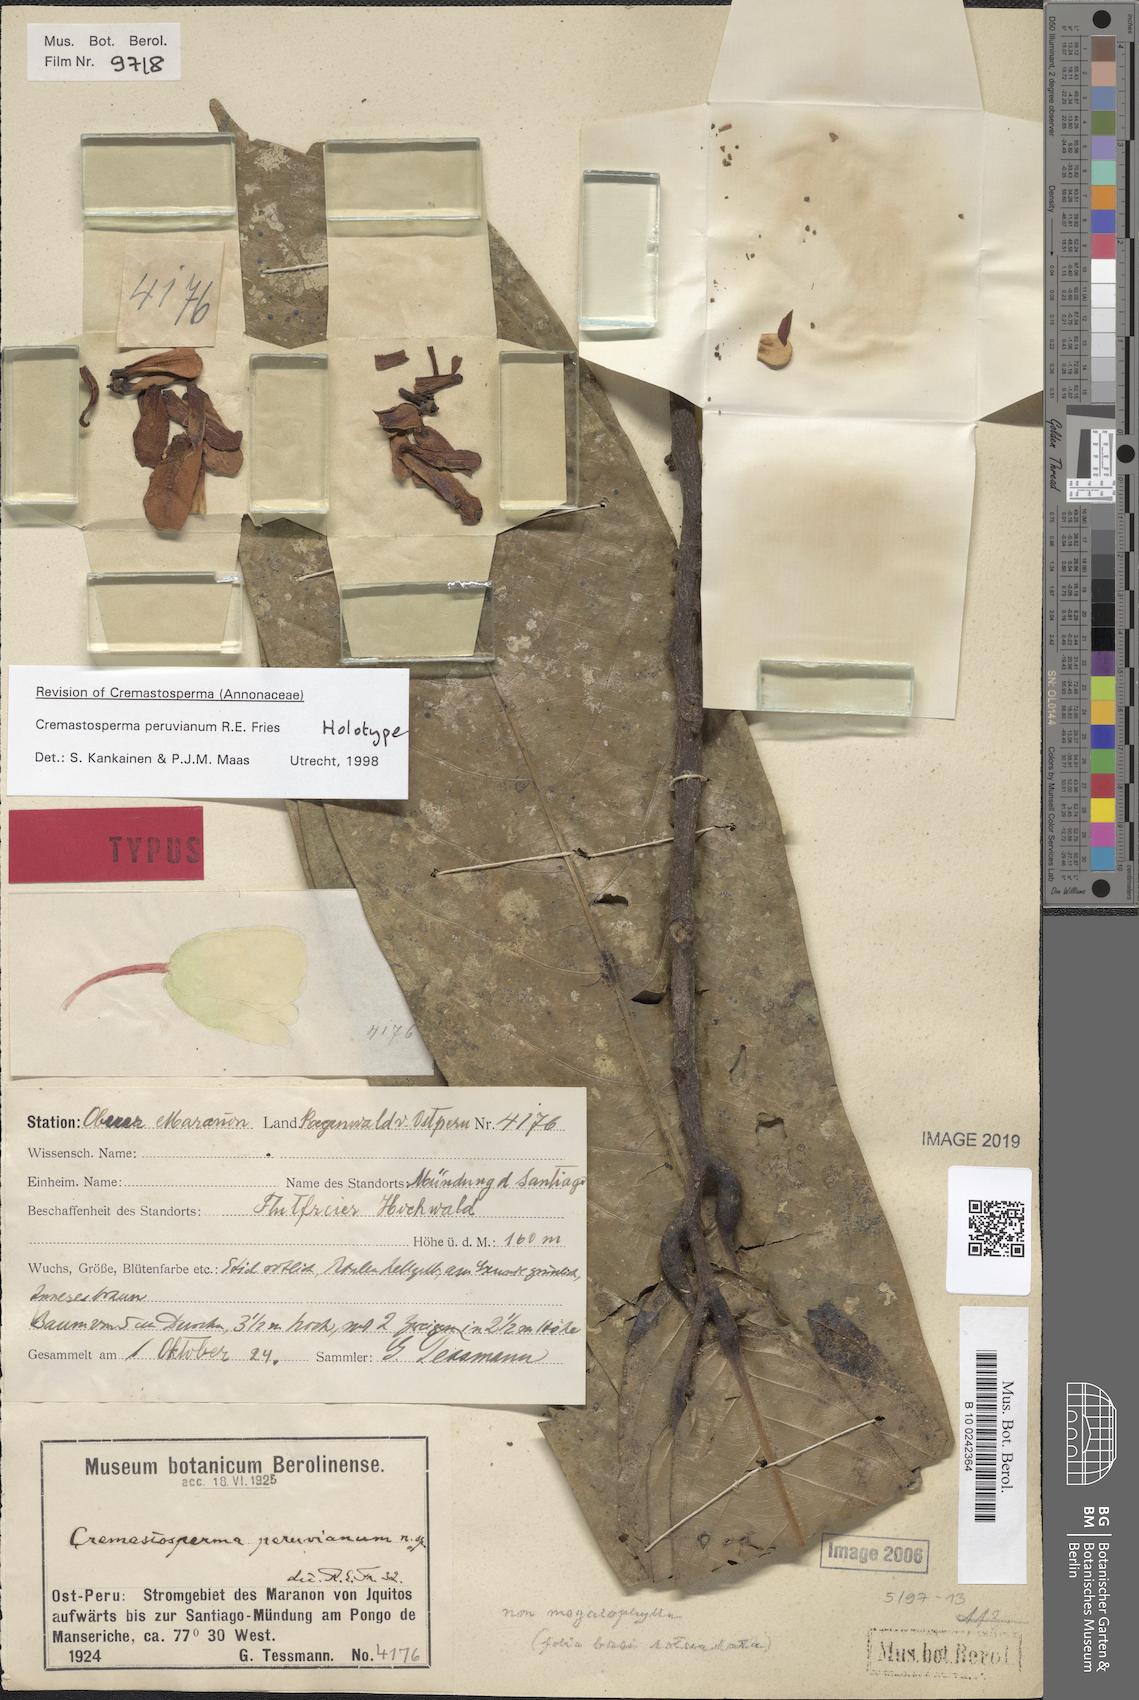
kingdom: Plantae
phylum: Tracheophyta
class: Magnoliopsida
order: Magnoliales
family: Annonaceae
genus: Cremastosperma
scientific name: Cremastosperma peruvianum
